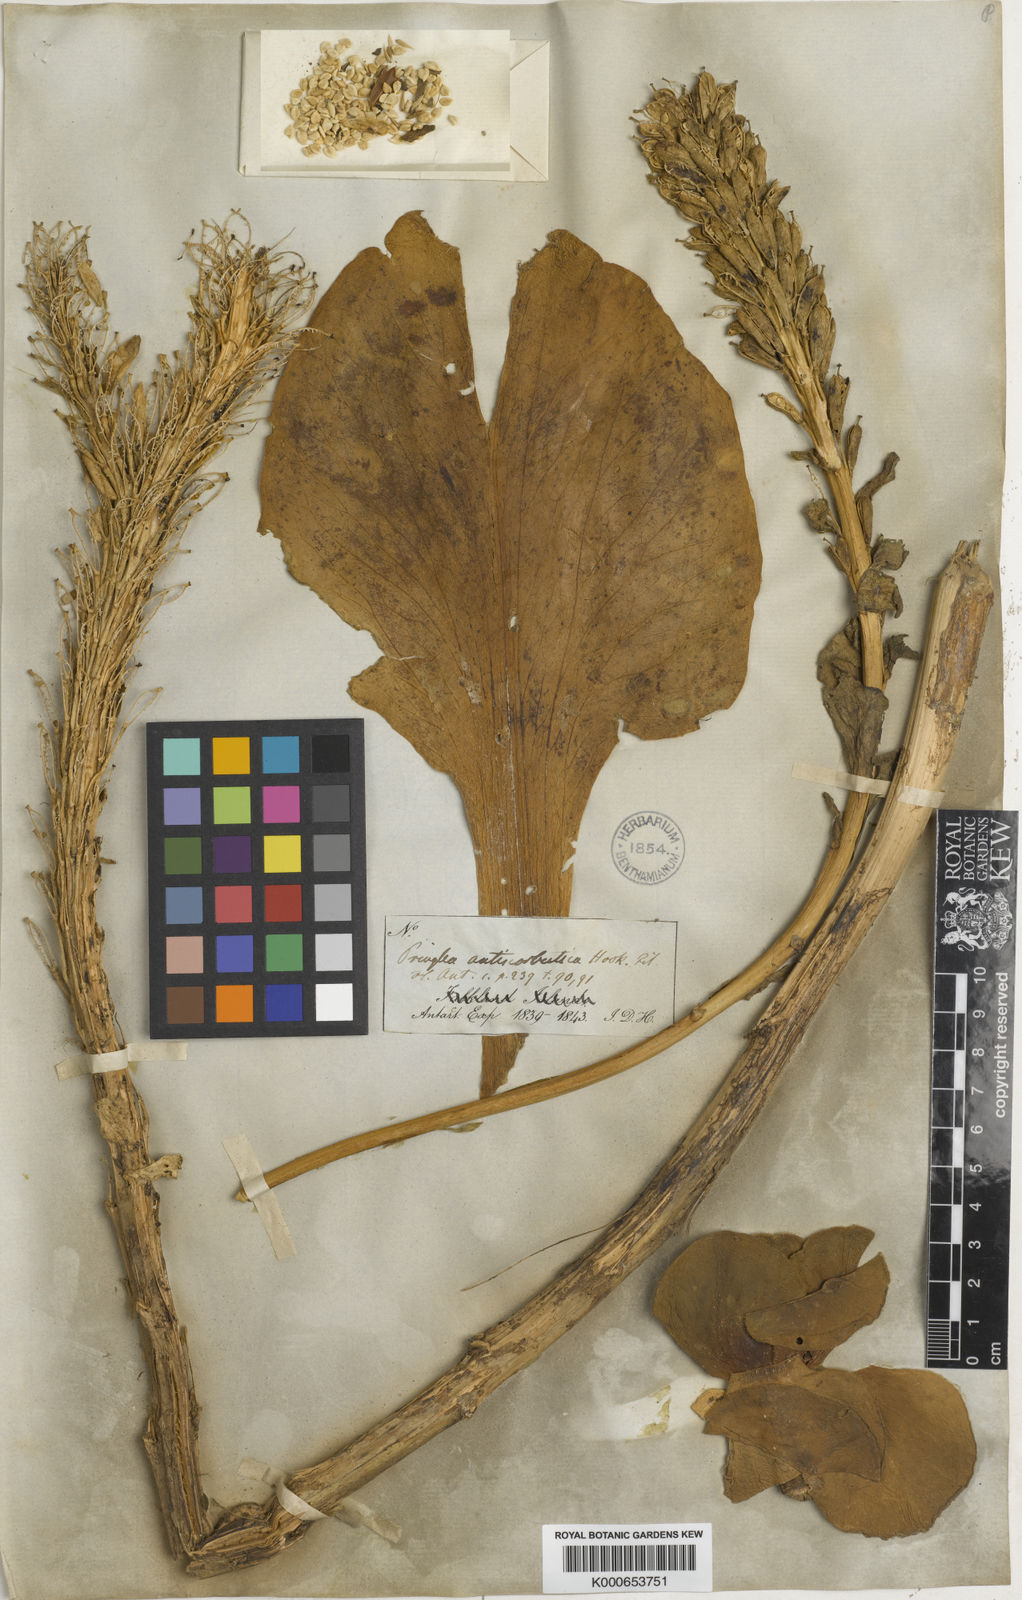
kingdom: Plantae
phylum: Tracheophyta
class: Magnoliopsida
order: Brassicales
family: Brassicaceae
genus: Pringlea
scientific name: Pringlea antiscorbutica
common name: Kerguelen-cabbage
